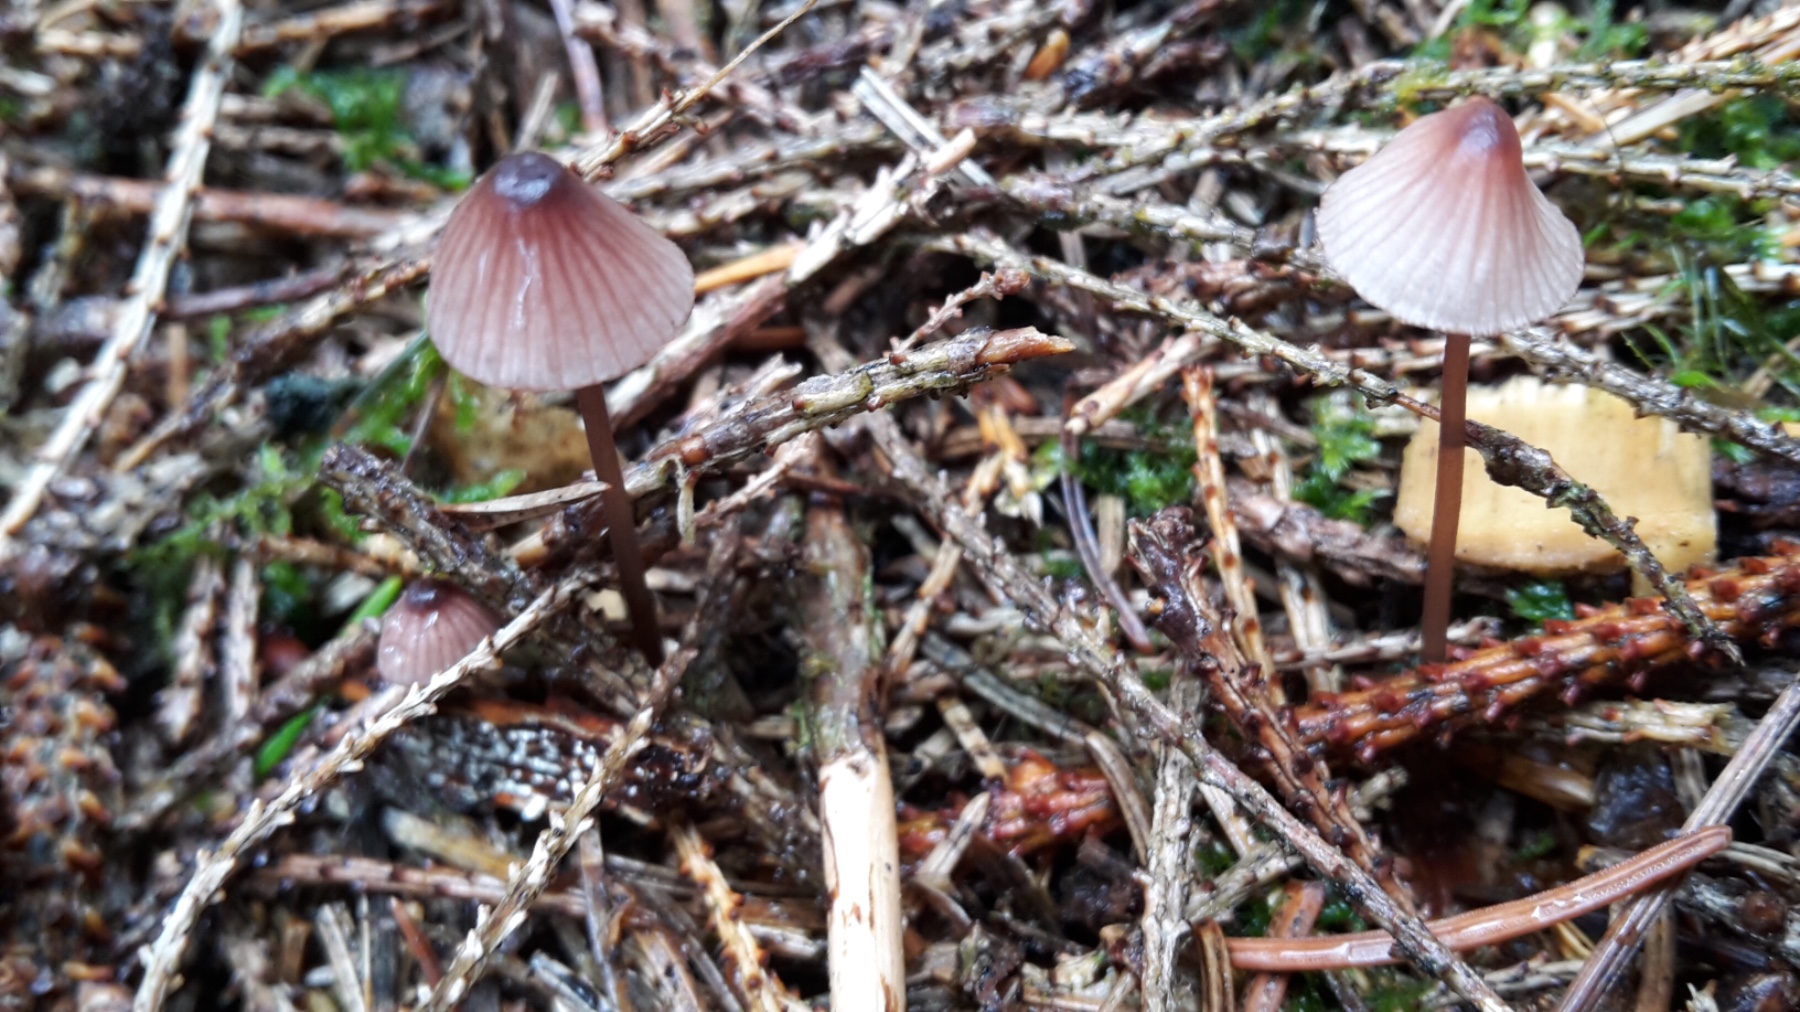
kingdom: Fungi
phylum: Basidiomycota
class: Agaricomycetes
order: Agaricales
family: Mycenaceae
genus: Mycena
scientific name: Mycena sanguinolenta
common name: rødmælket huesvamp
